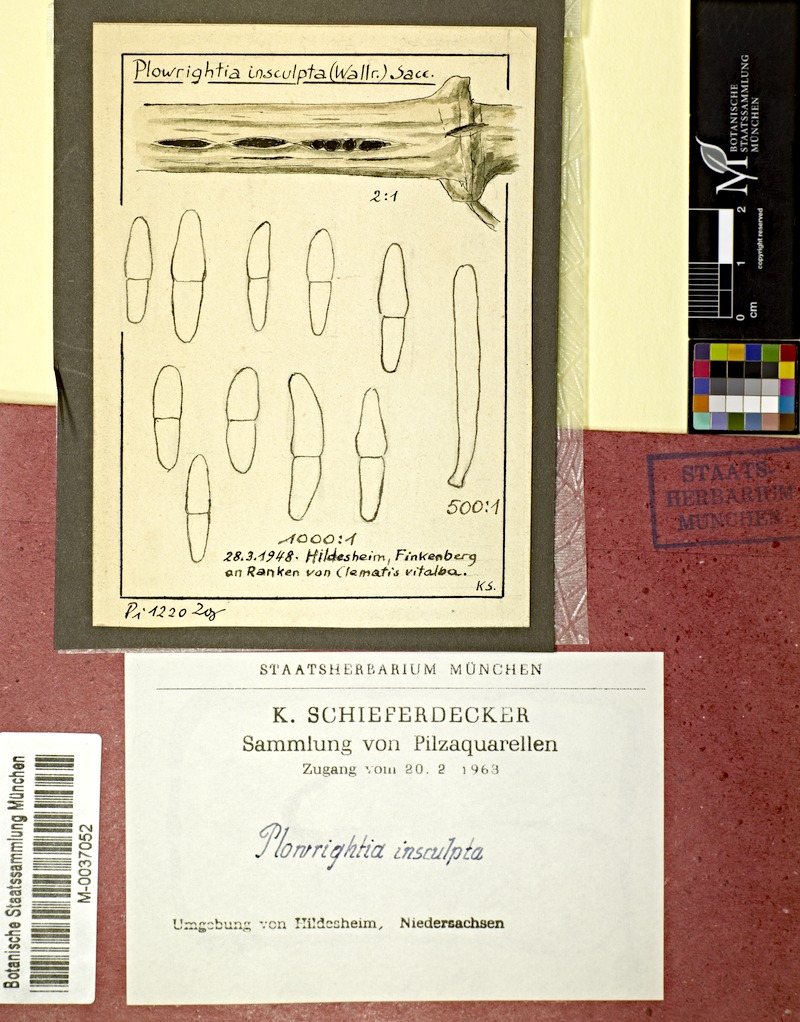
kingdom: Fungi
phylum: Ascomycota
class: Dothideomycetes
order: Dothideales
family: Dothideaceae
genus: Dothidea
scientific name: Dothidea insculpta
